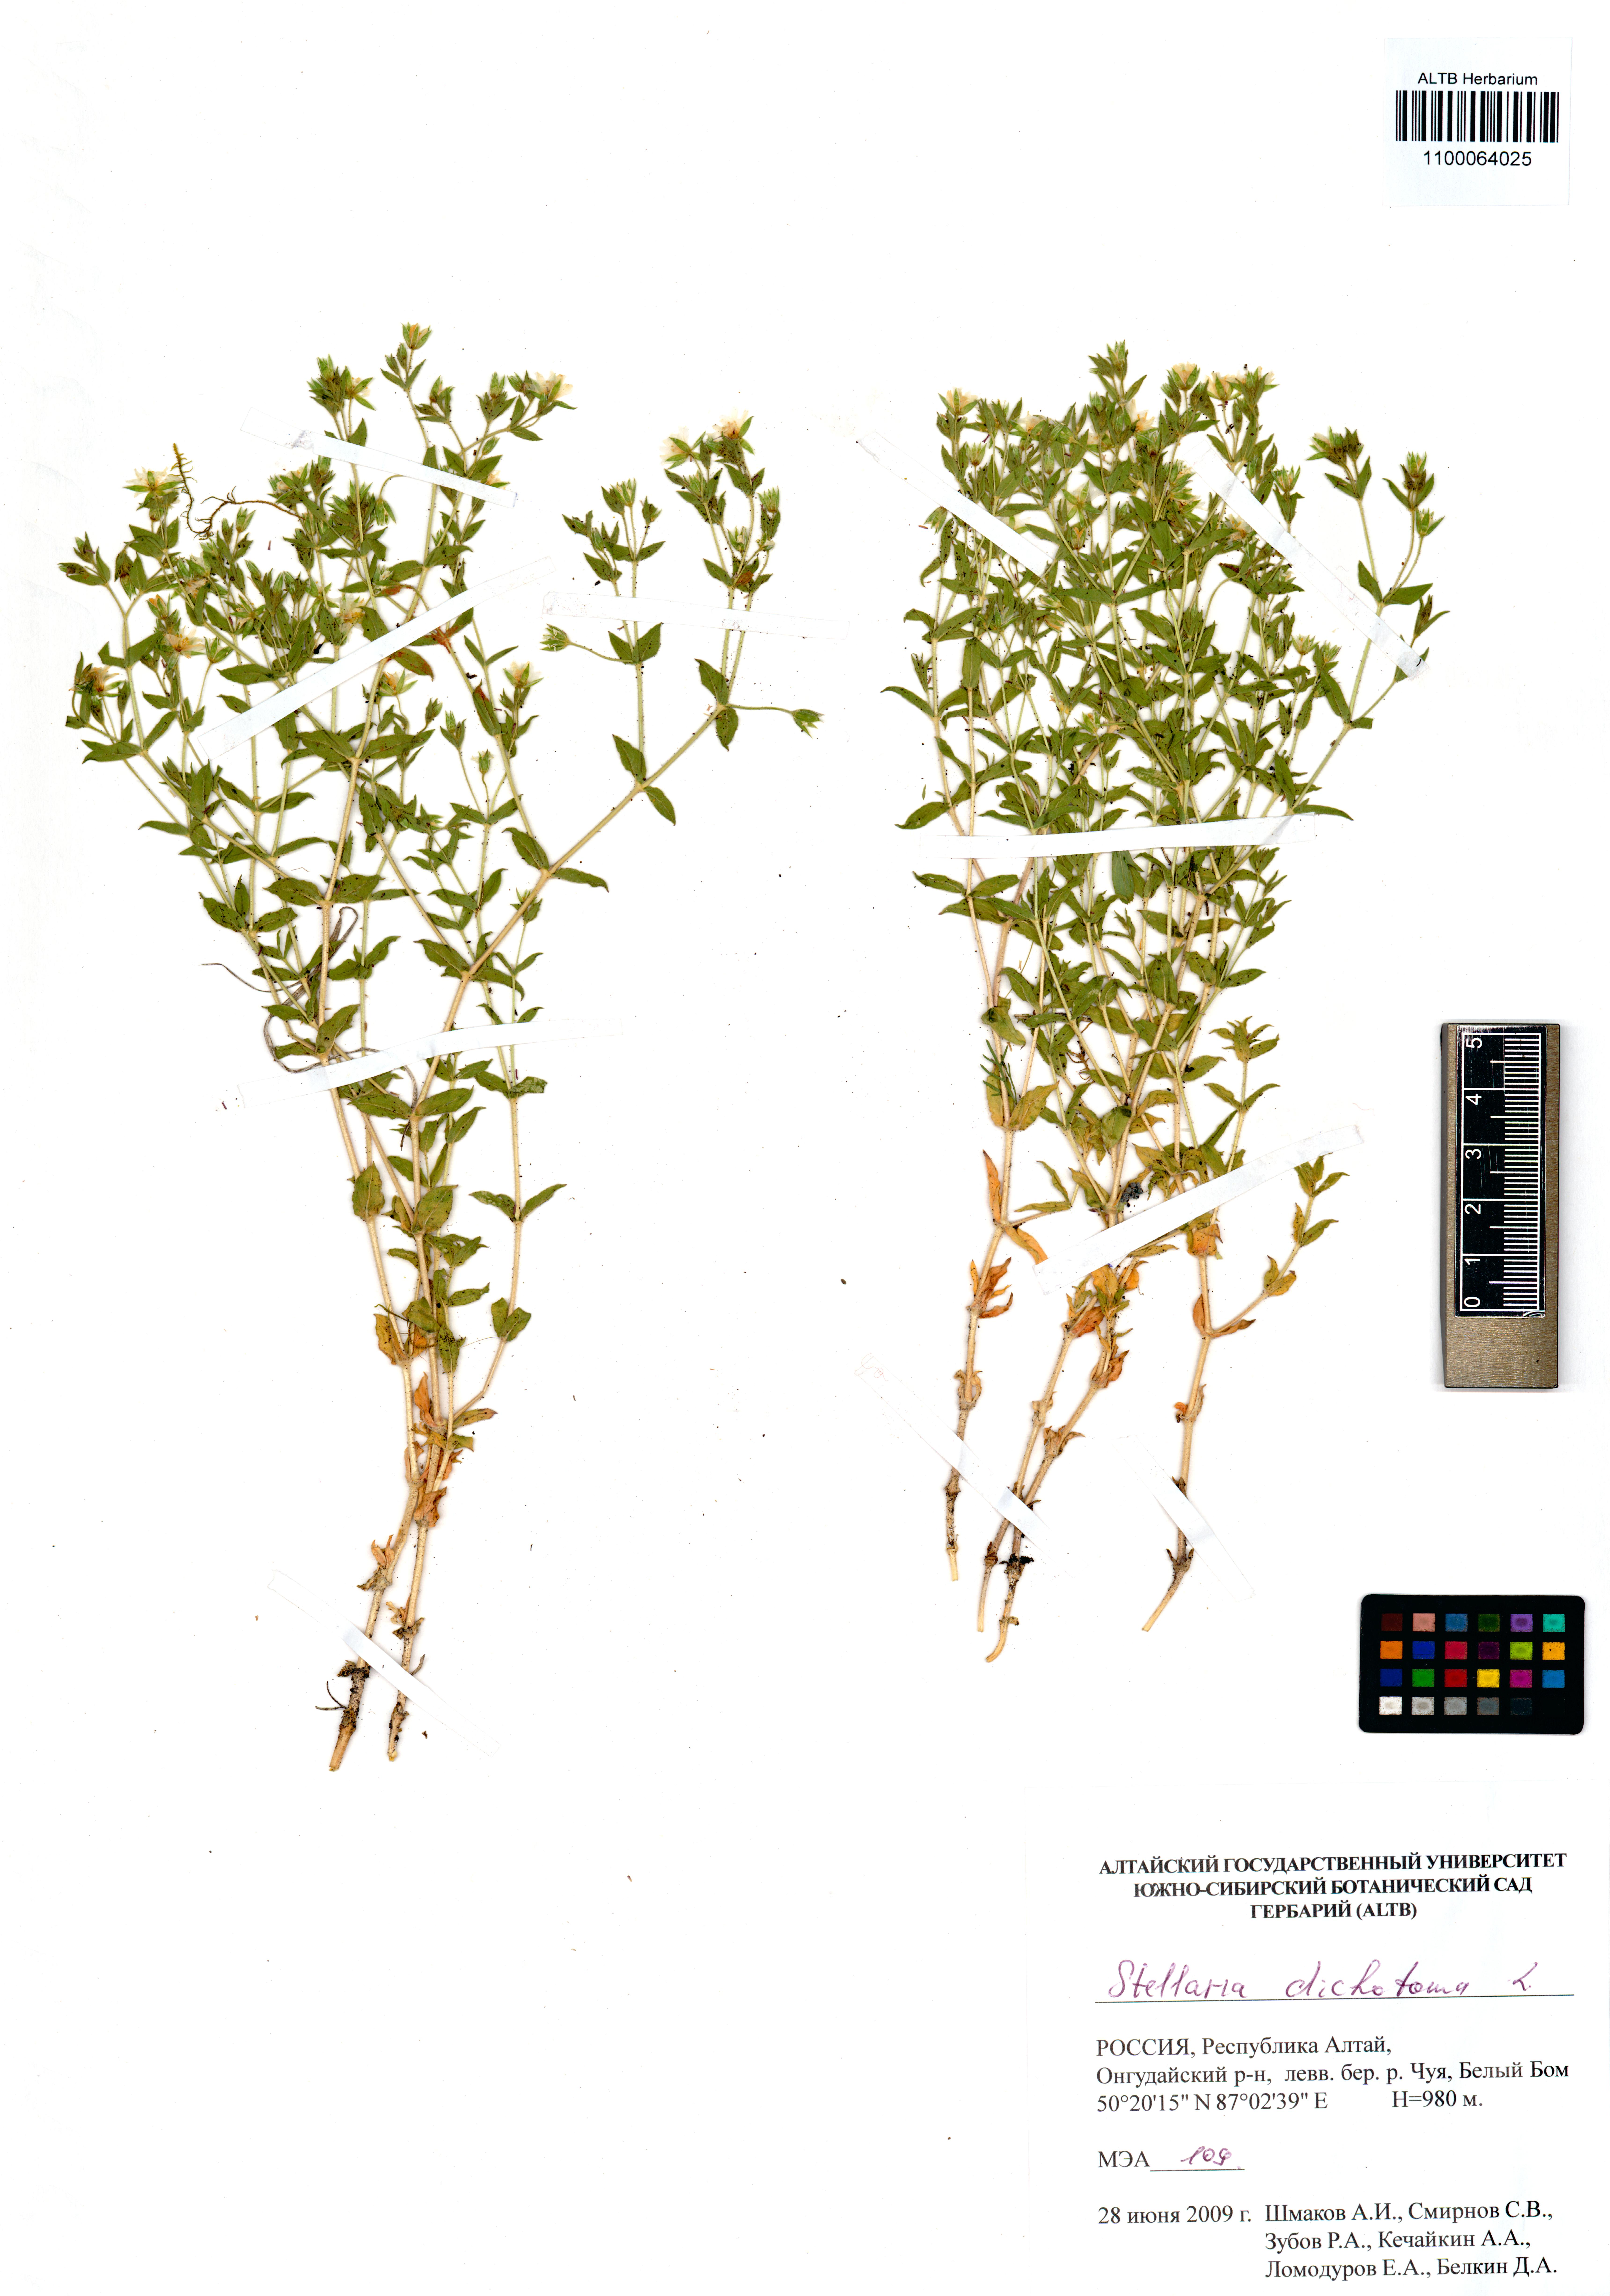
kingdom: Plantae
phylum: Tracheophyta
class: Magnoliopsida
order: Caryophyllales
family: Caryophyllaceae
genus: Mesostemma
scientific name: Mesostemma dichotomum
